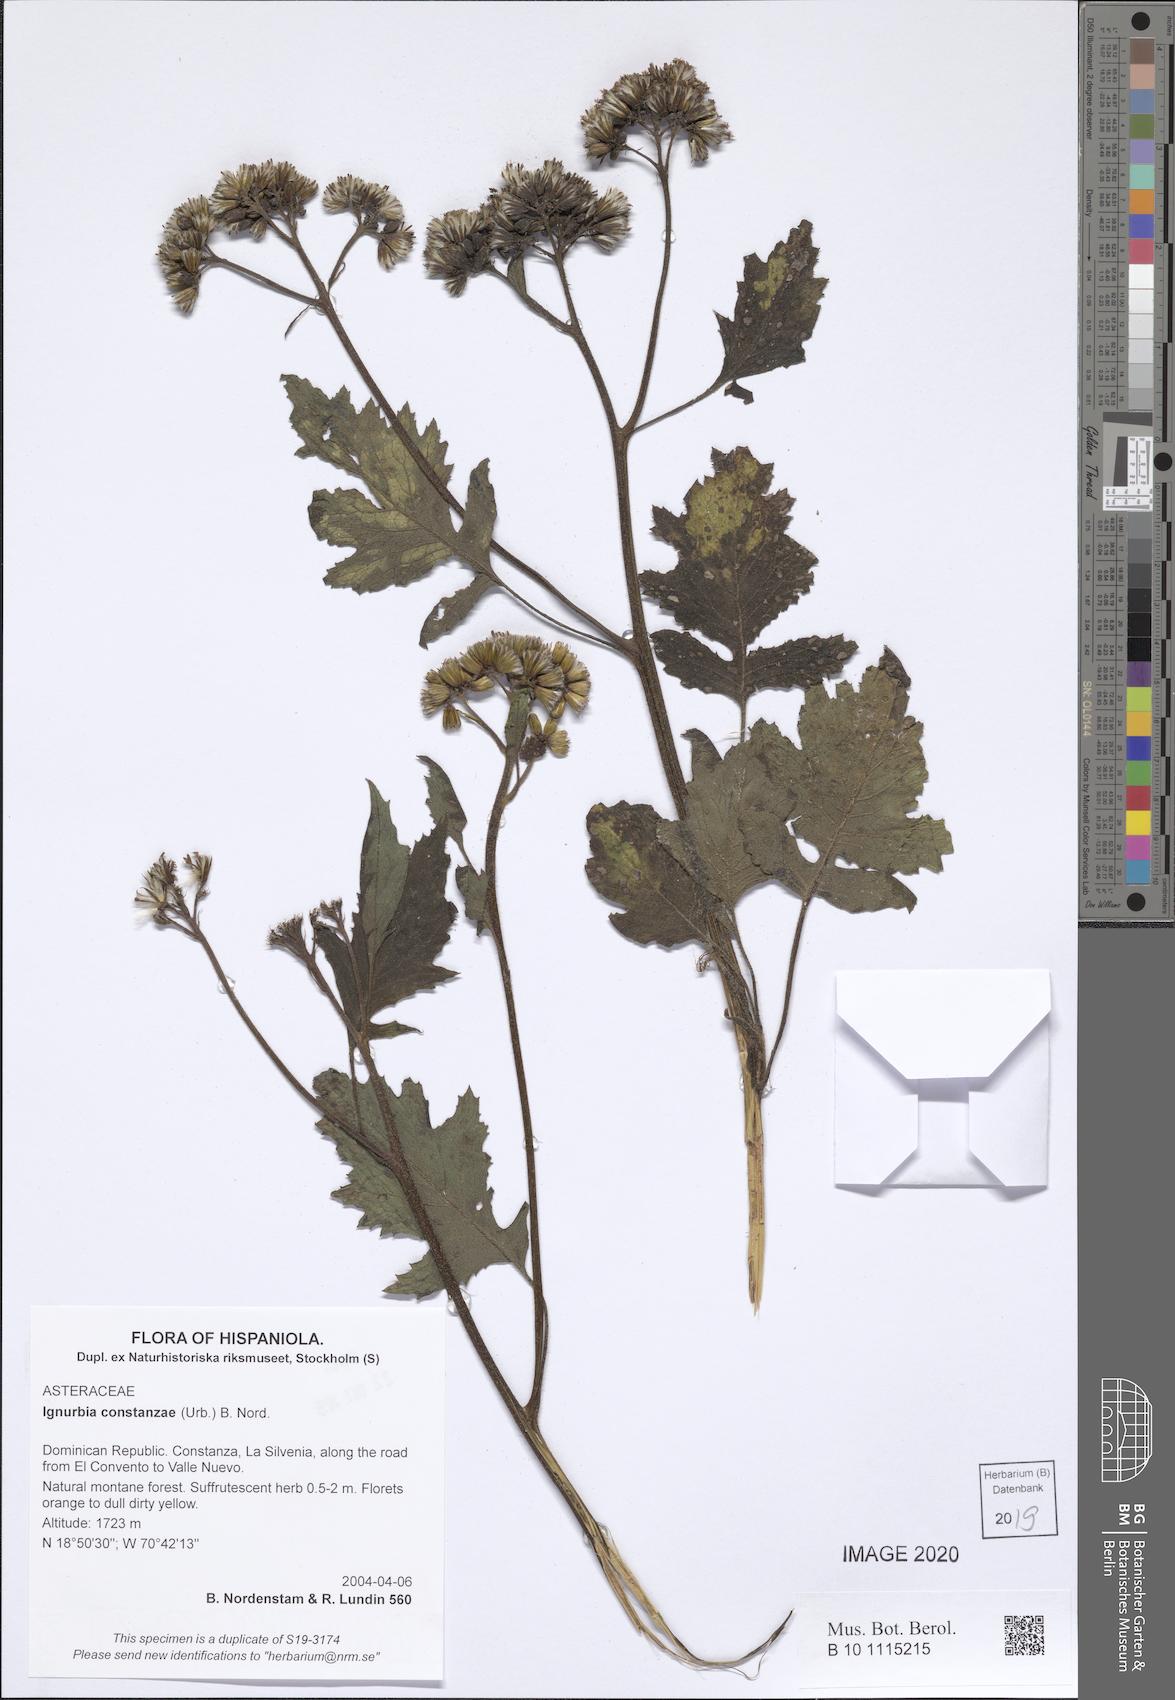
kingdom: Plantae
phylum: Tracheophyta
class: Magnoliopsida
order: Asterales
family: Asteraceae
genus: Ignurbia
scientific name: Ignurbia constanzae
